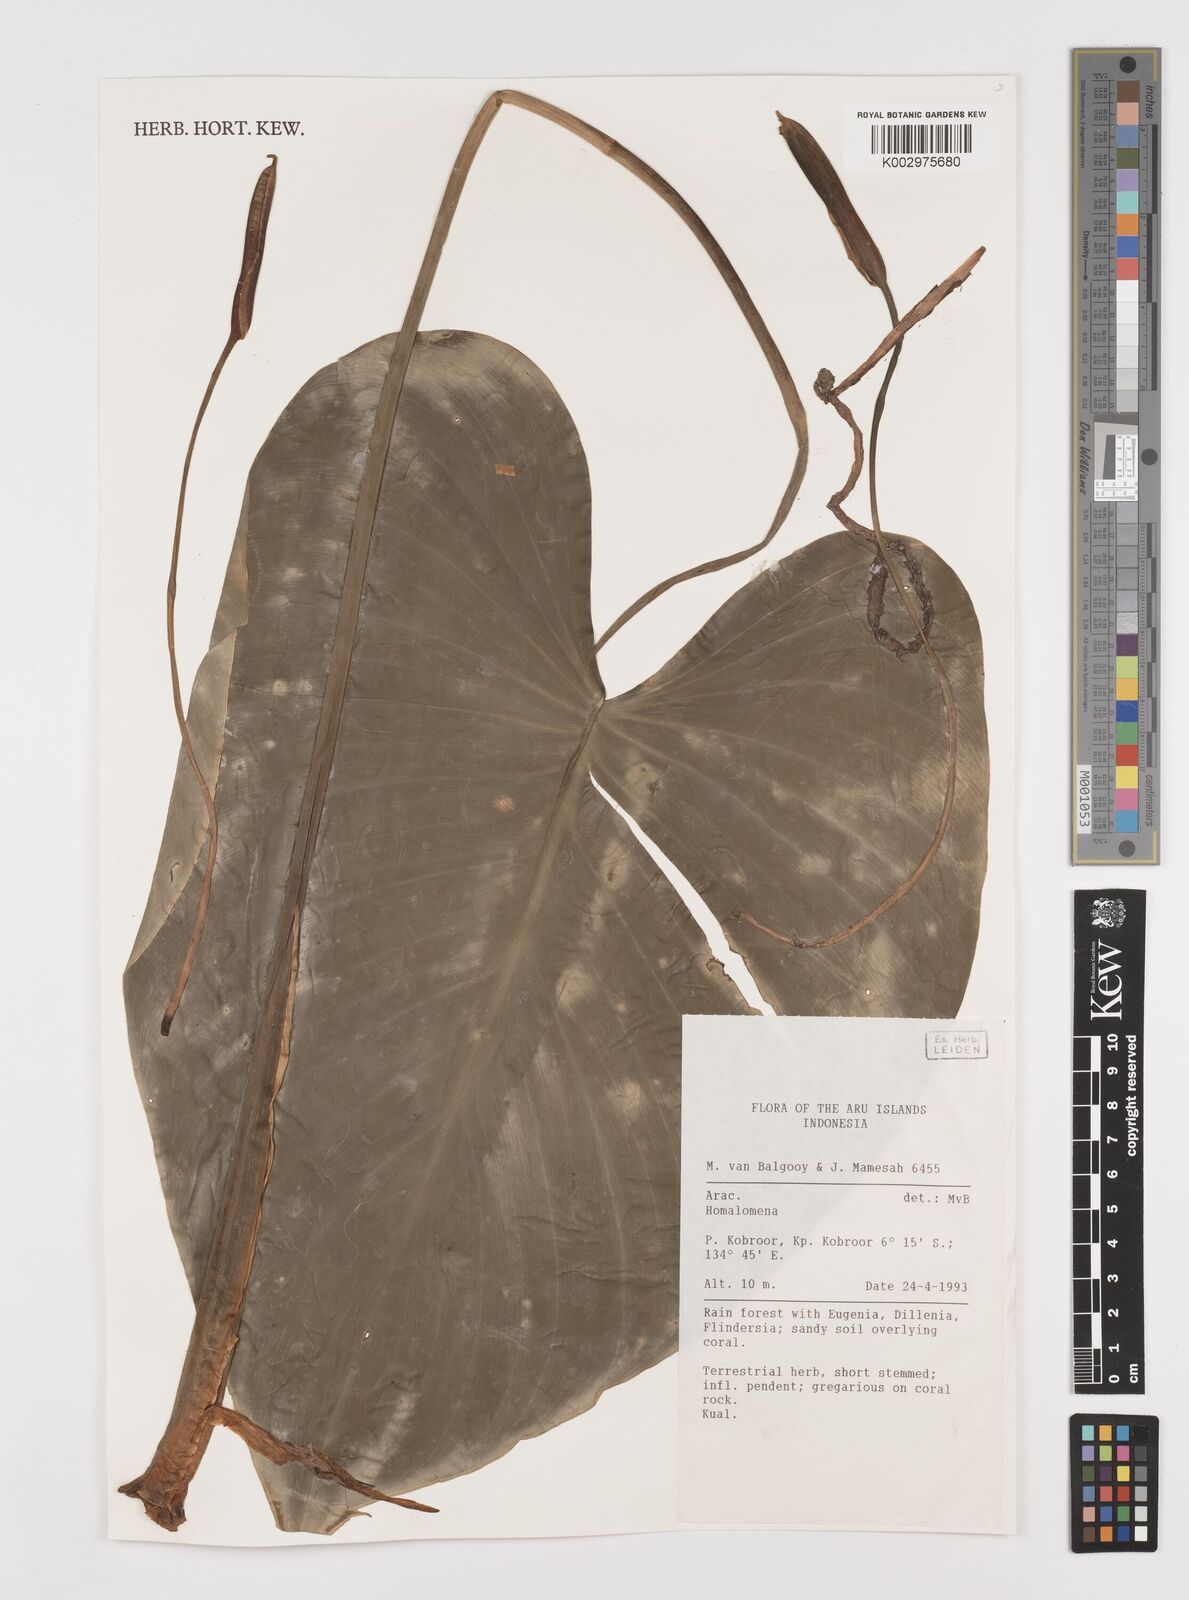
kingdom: Plantae
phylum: Tracheophyta
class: Liliopsida
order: Alismatales
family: Araceae
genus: Homalomena
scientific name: Homalomena
